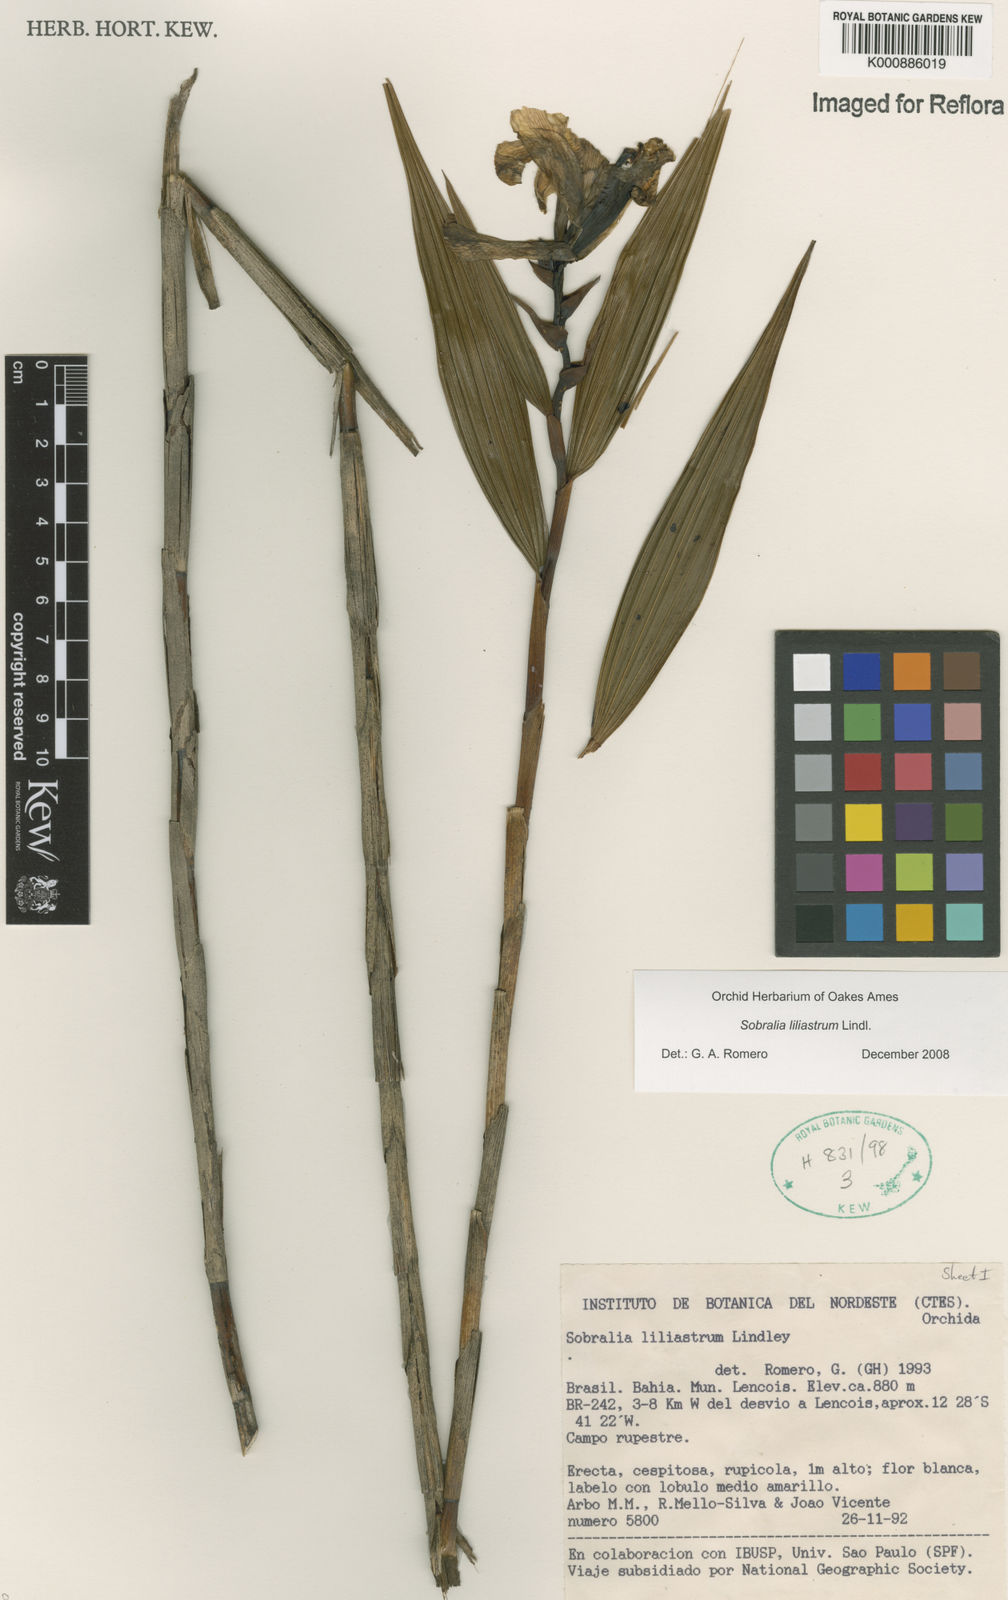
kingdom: Plantae
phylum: Tracheophyta
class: Liliopsida
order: Asparagales
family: Orchidaceae
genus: Sobralia
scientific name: Sobralia liliastrum
